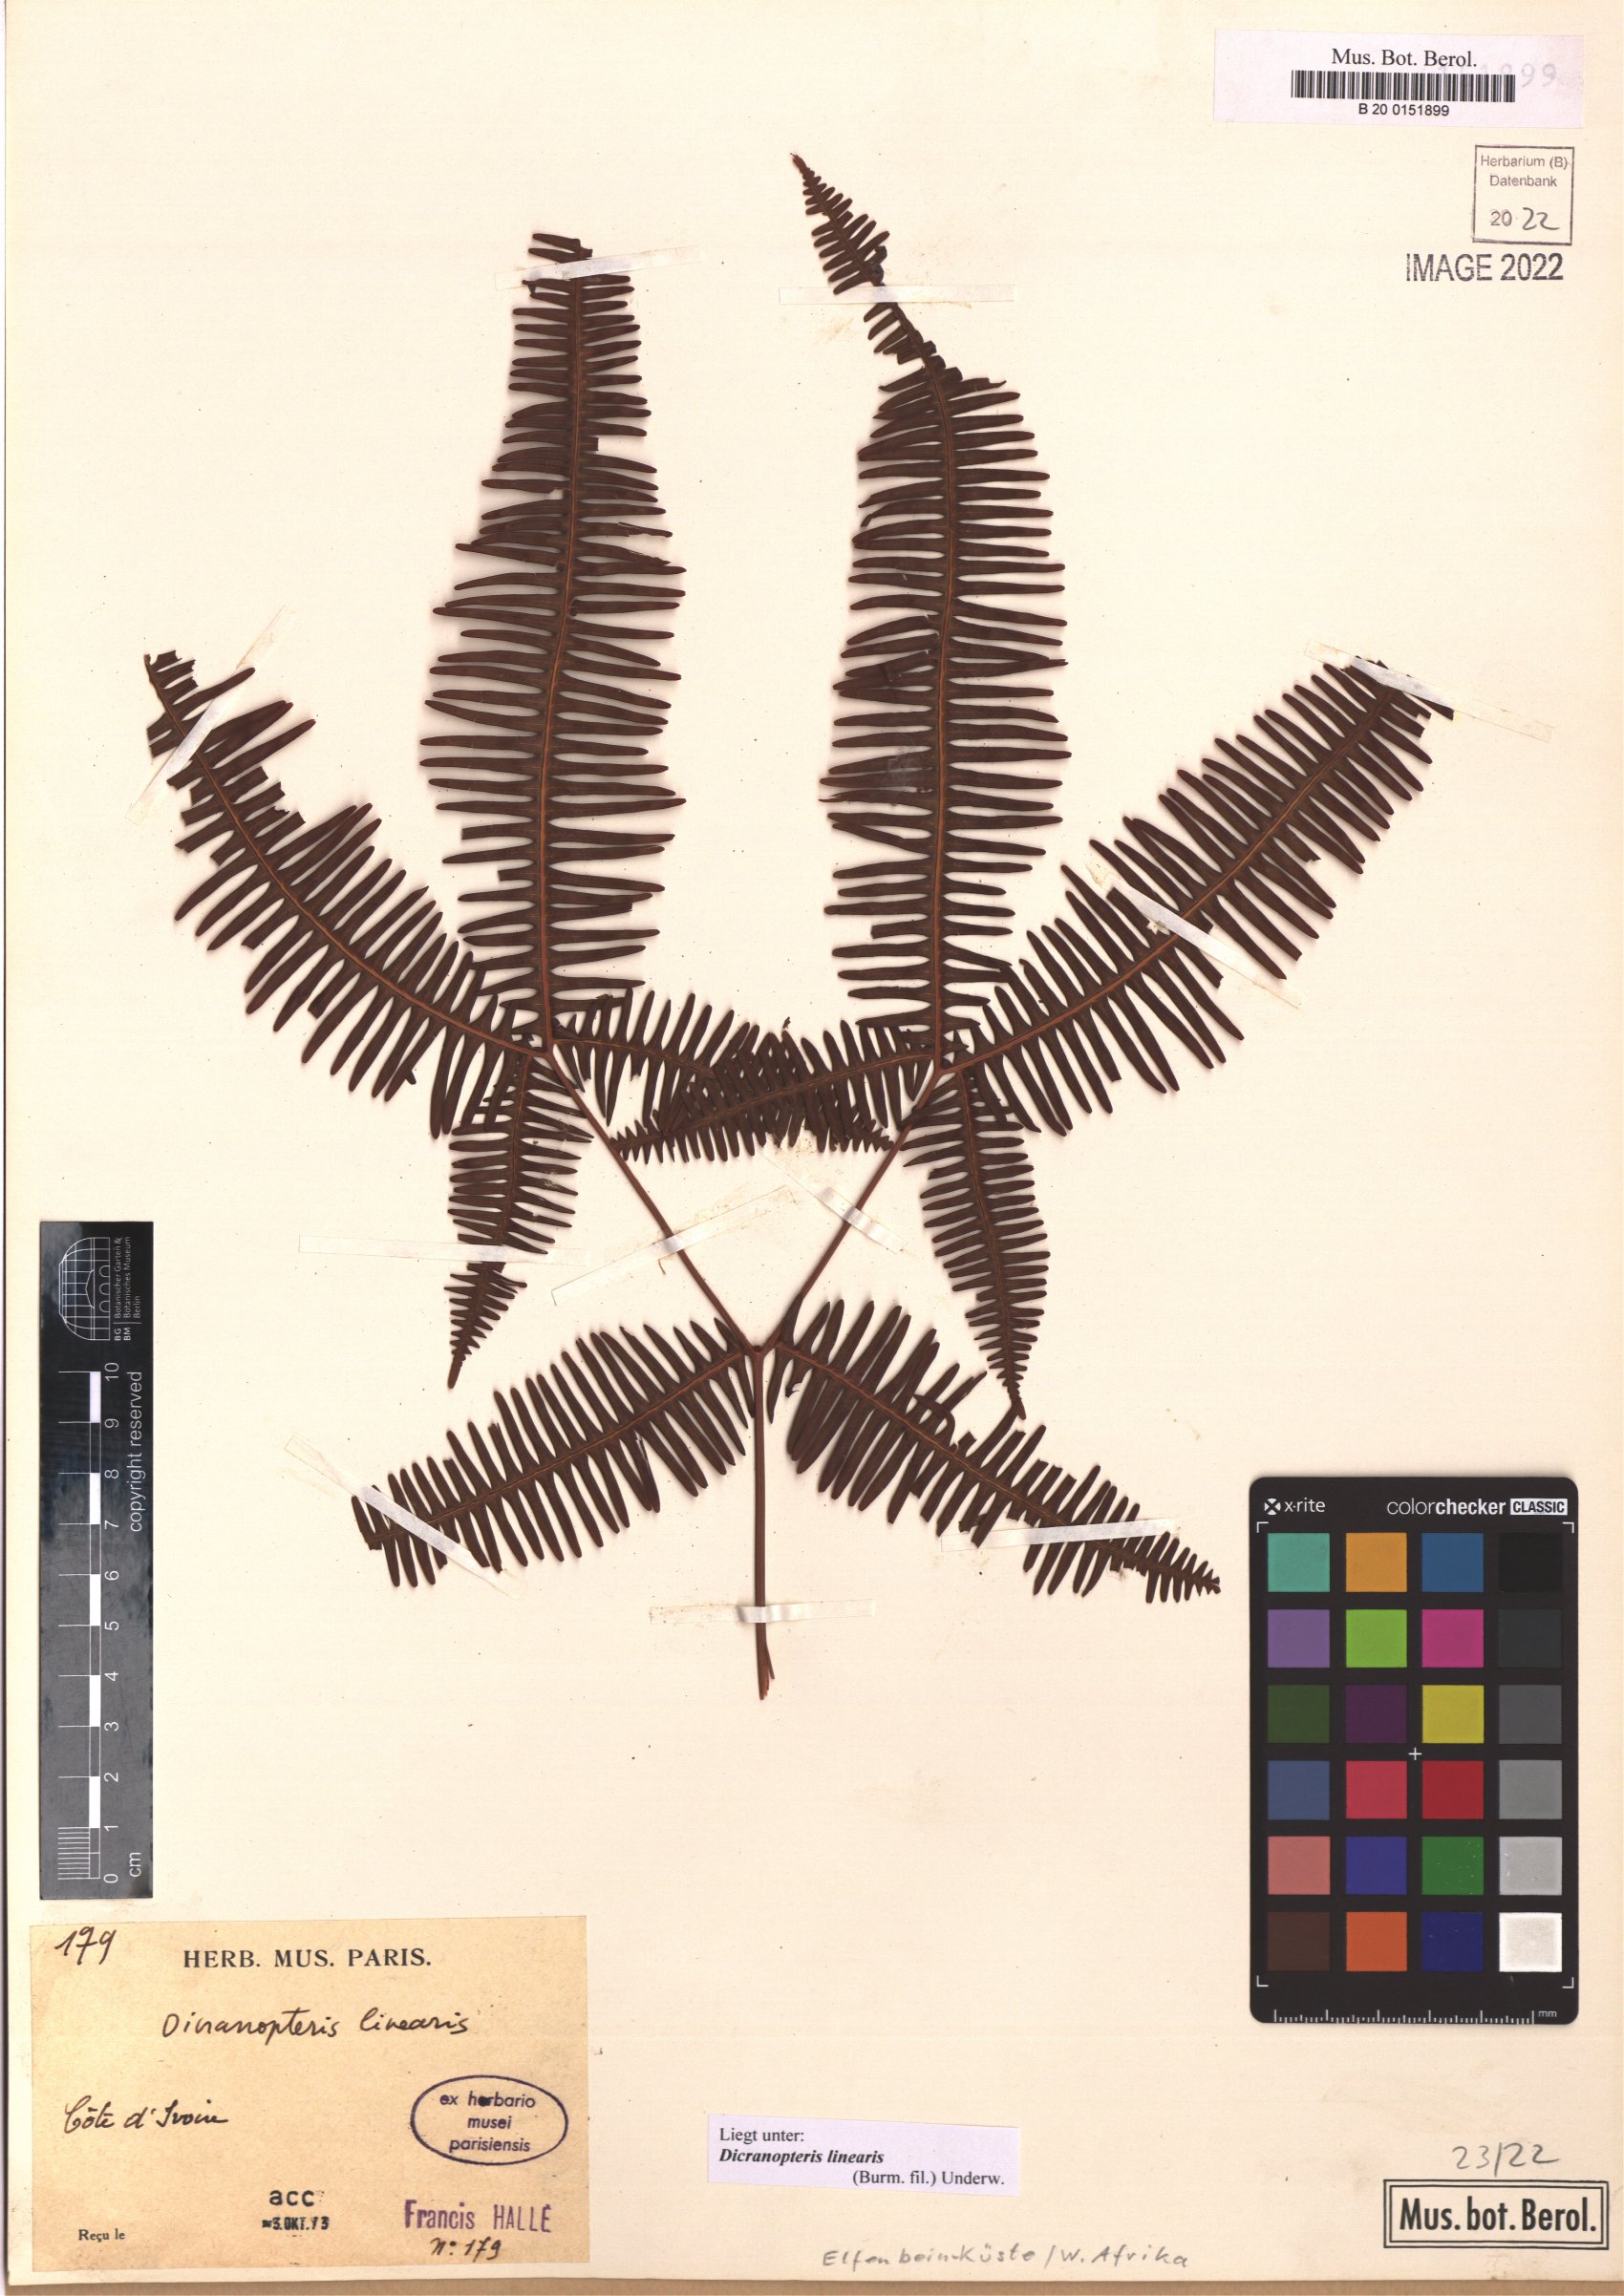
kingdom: Plantae
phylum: Tracheophyta
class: Polypodiopsida
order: Gleicheniales
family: Gleicheniaceae
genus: Dicranopteris
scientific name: Dicranopteris linearis
